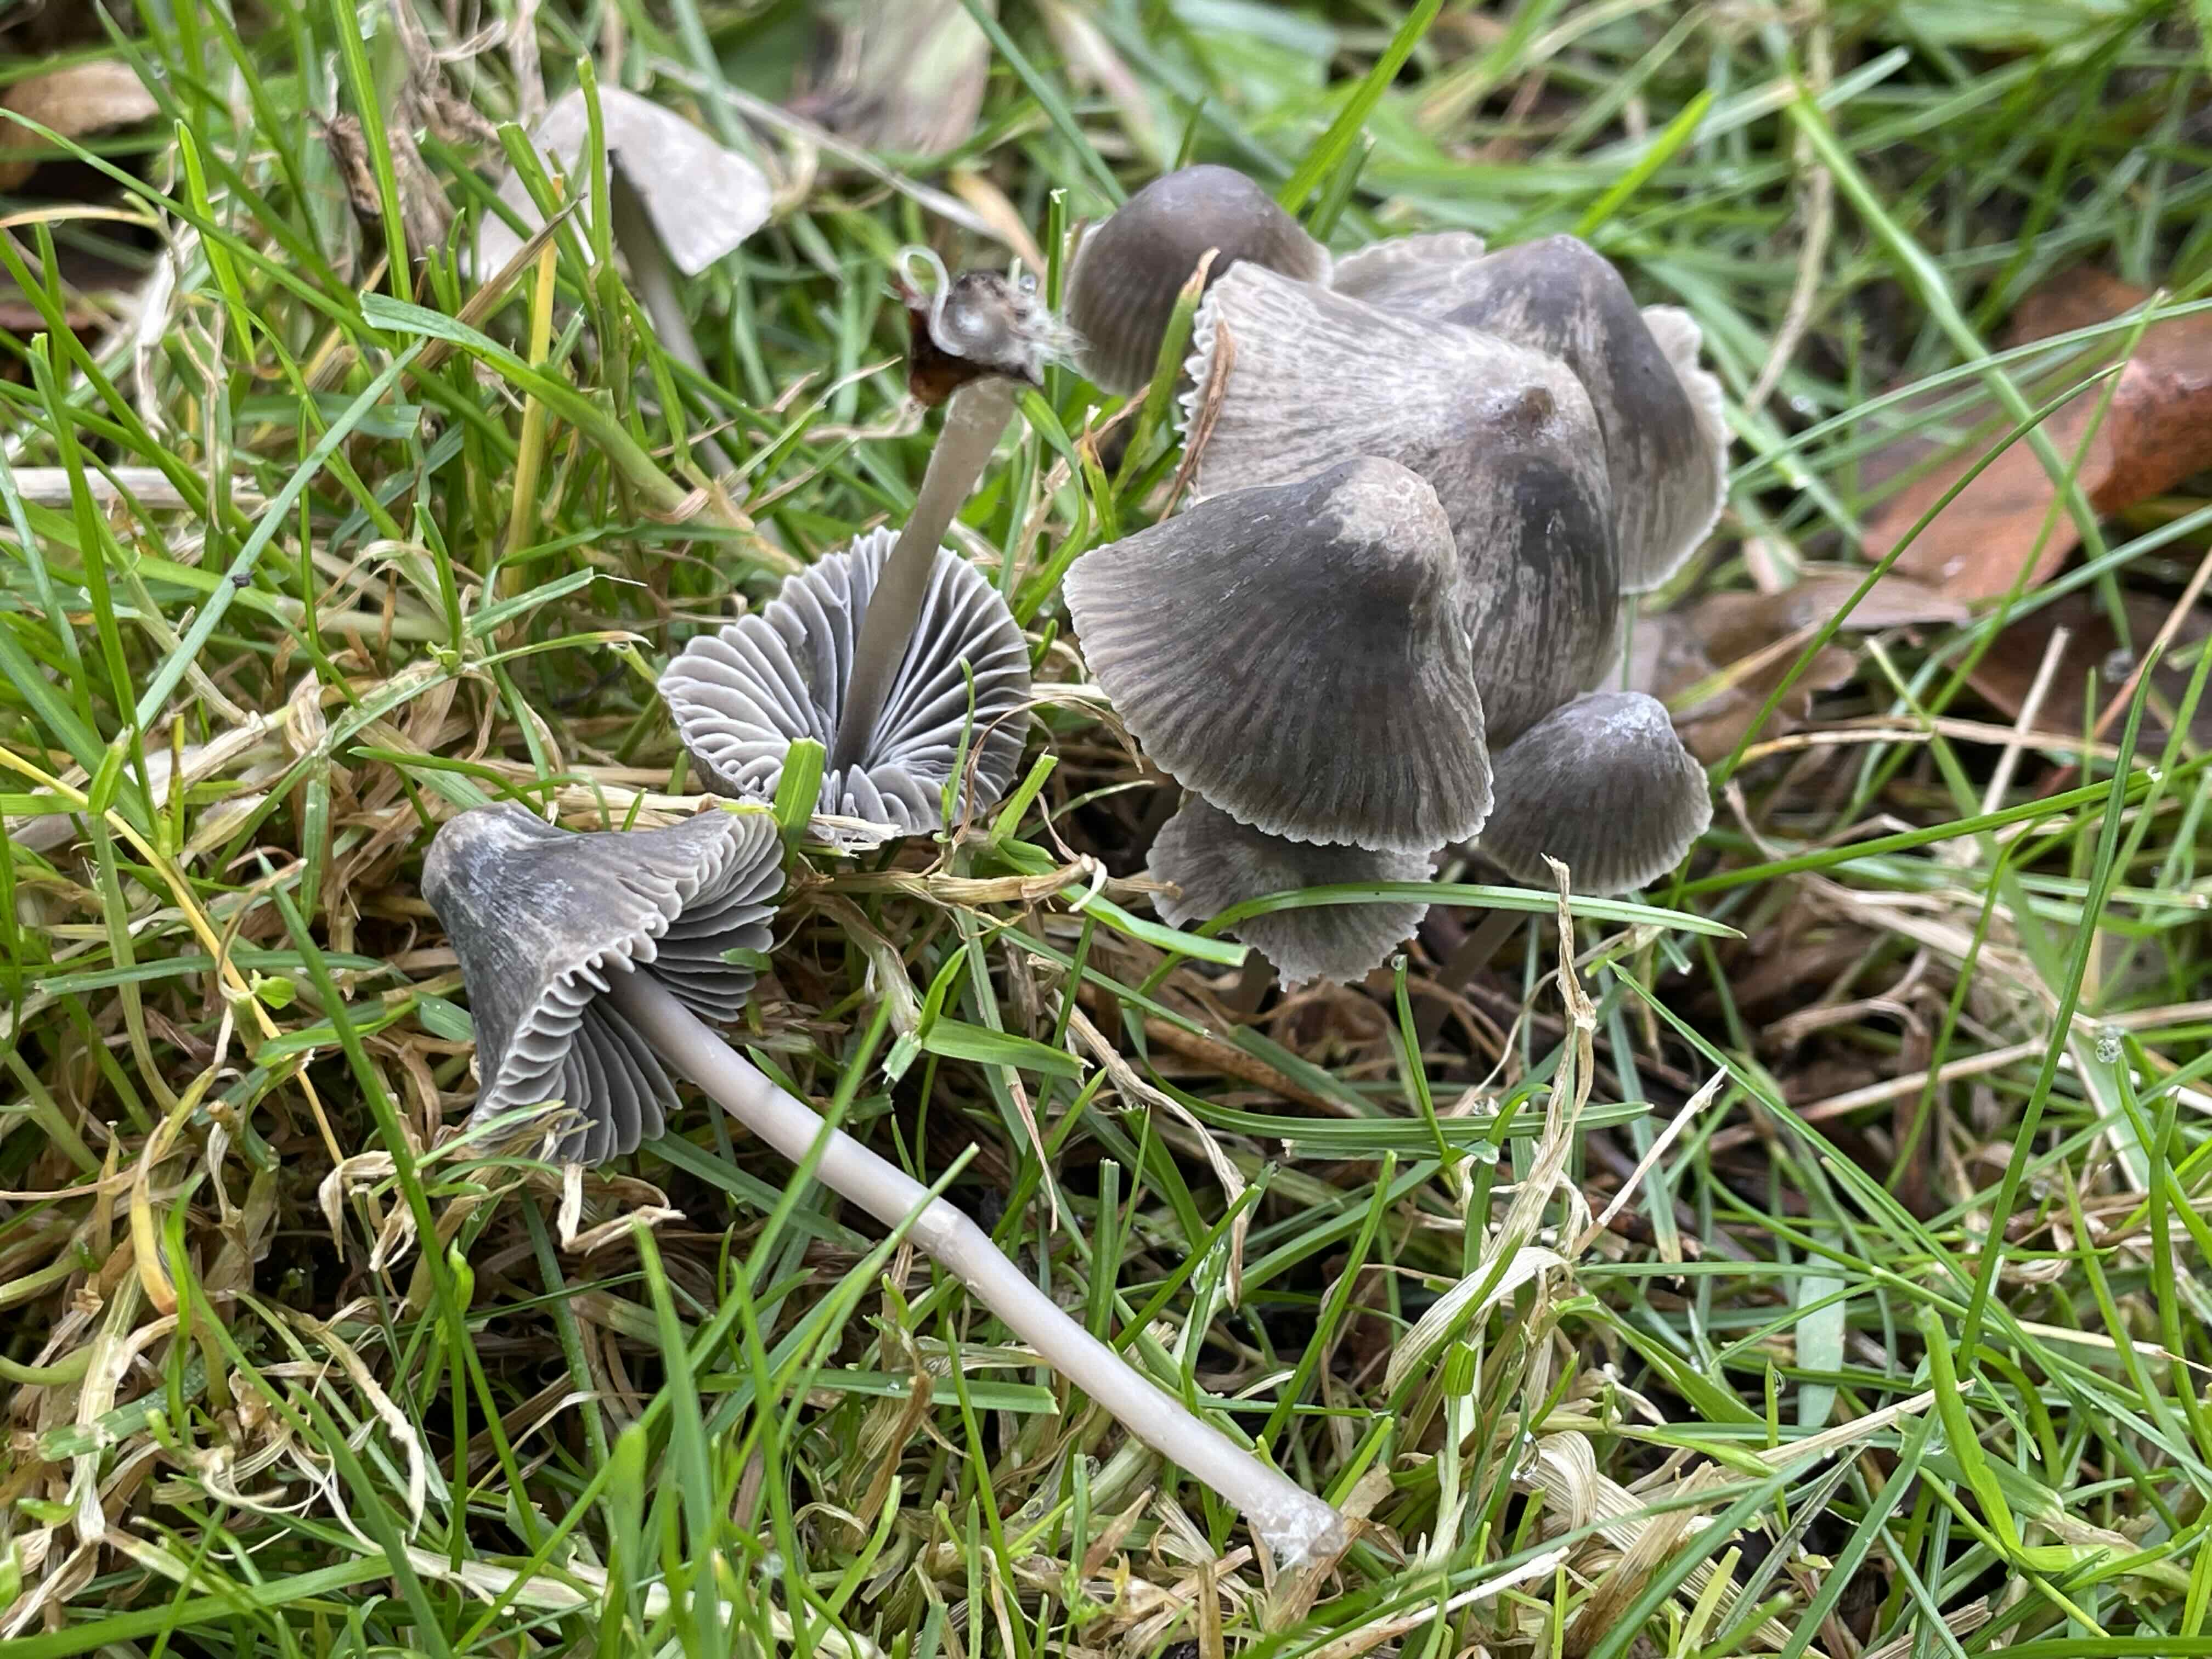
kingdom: Fungi
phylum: Basidiomycota
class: Agaricomycetes
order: Agaricales
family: Mycenaceae
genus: Mycena
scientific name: Mycena aetites
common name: plæne-huesvamp
